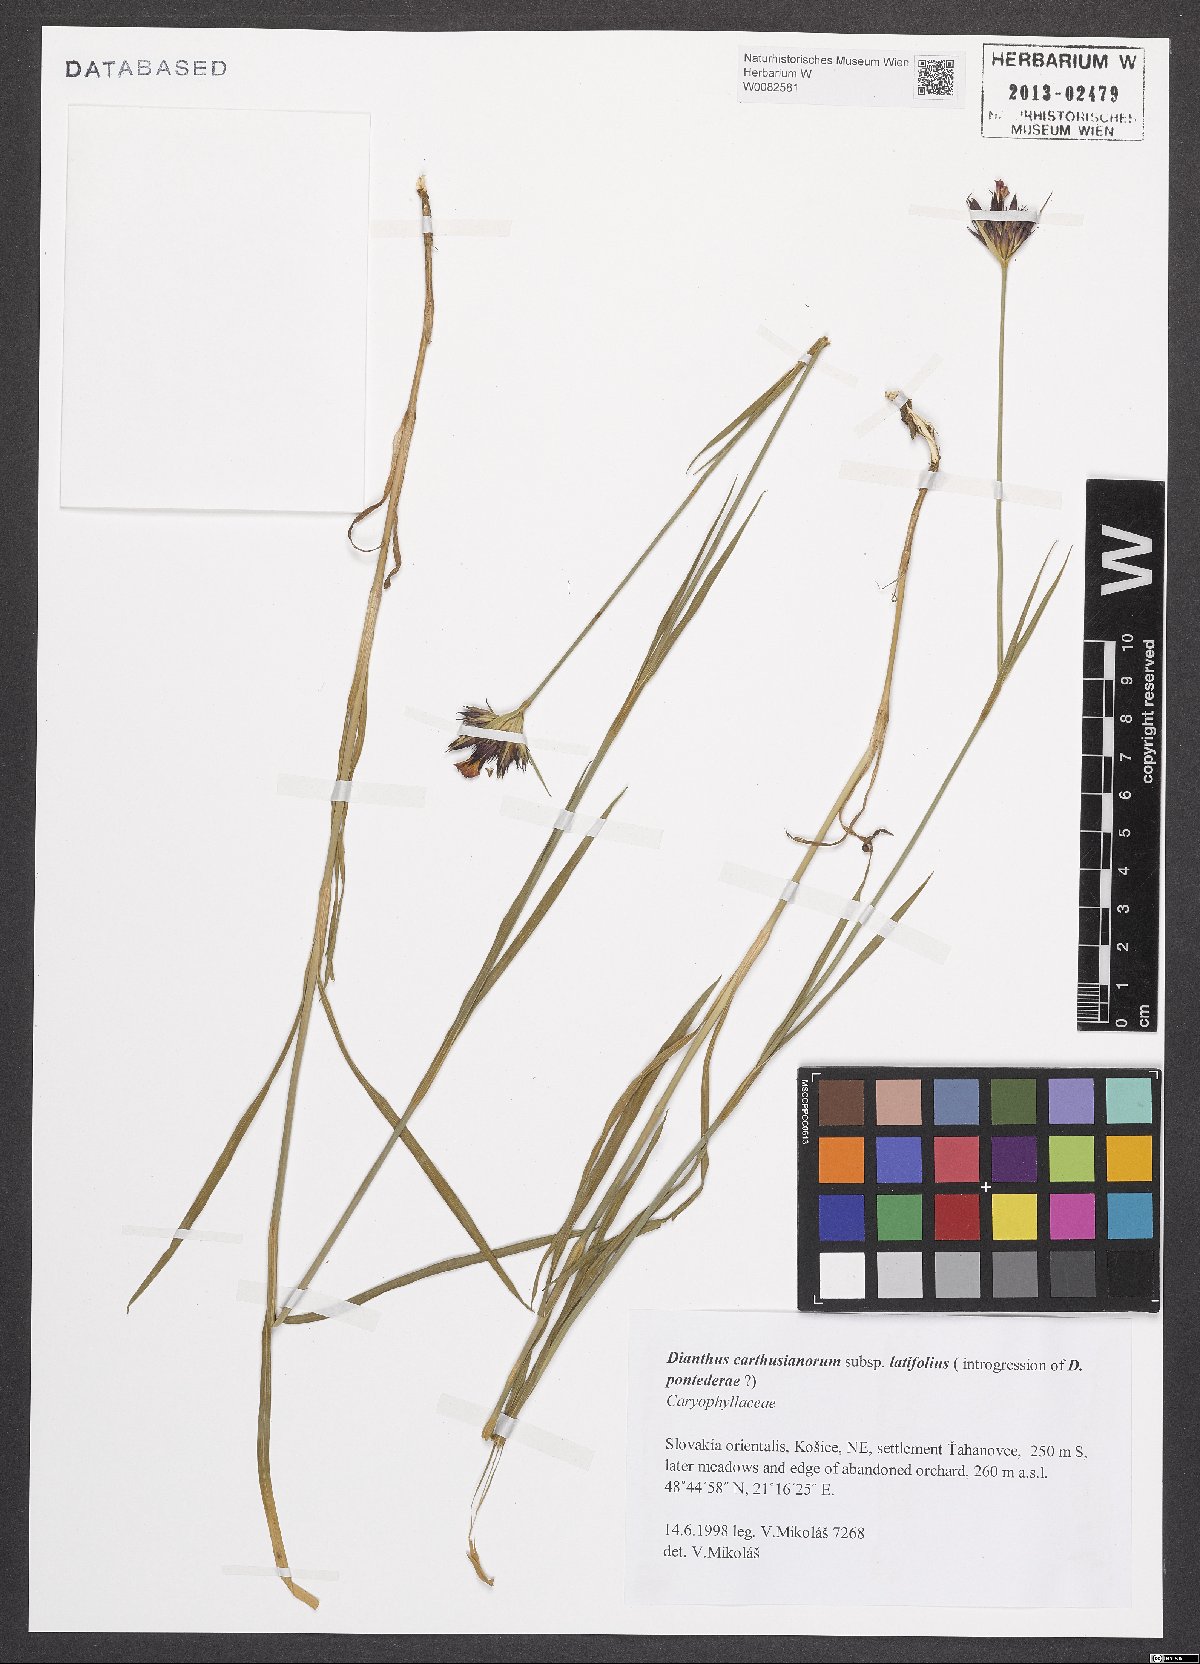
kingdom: Plantae
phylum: Tracheophyta
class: Magnoliopsida
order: Caryophyllales
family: Caryophyllaceae
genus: Dianthus
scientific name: Dianthus carthusianorum
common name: Carthusian pink
